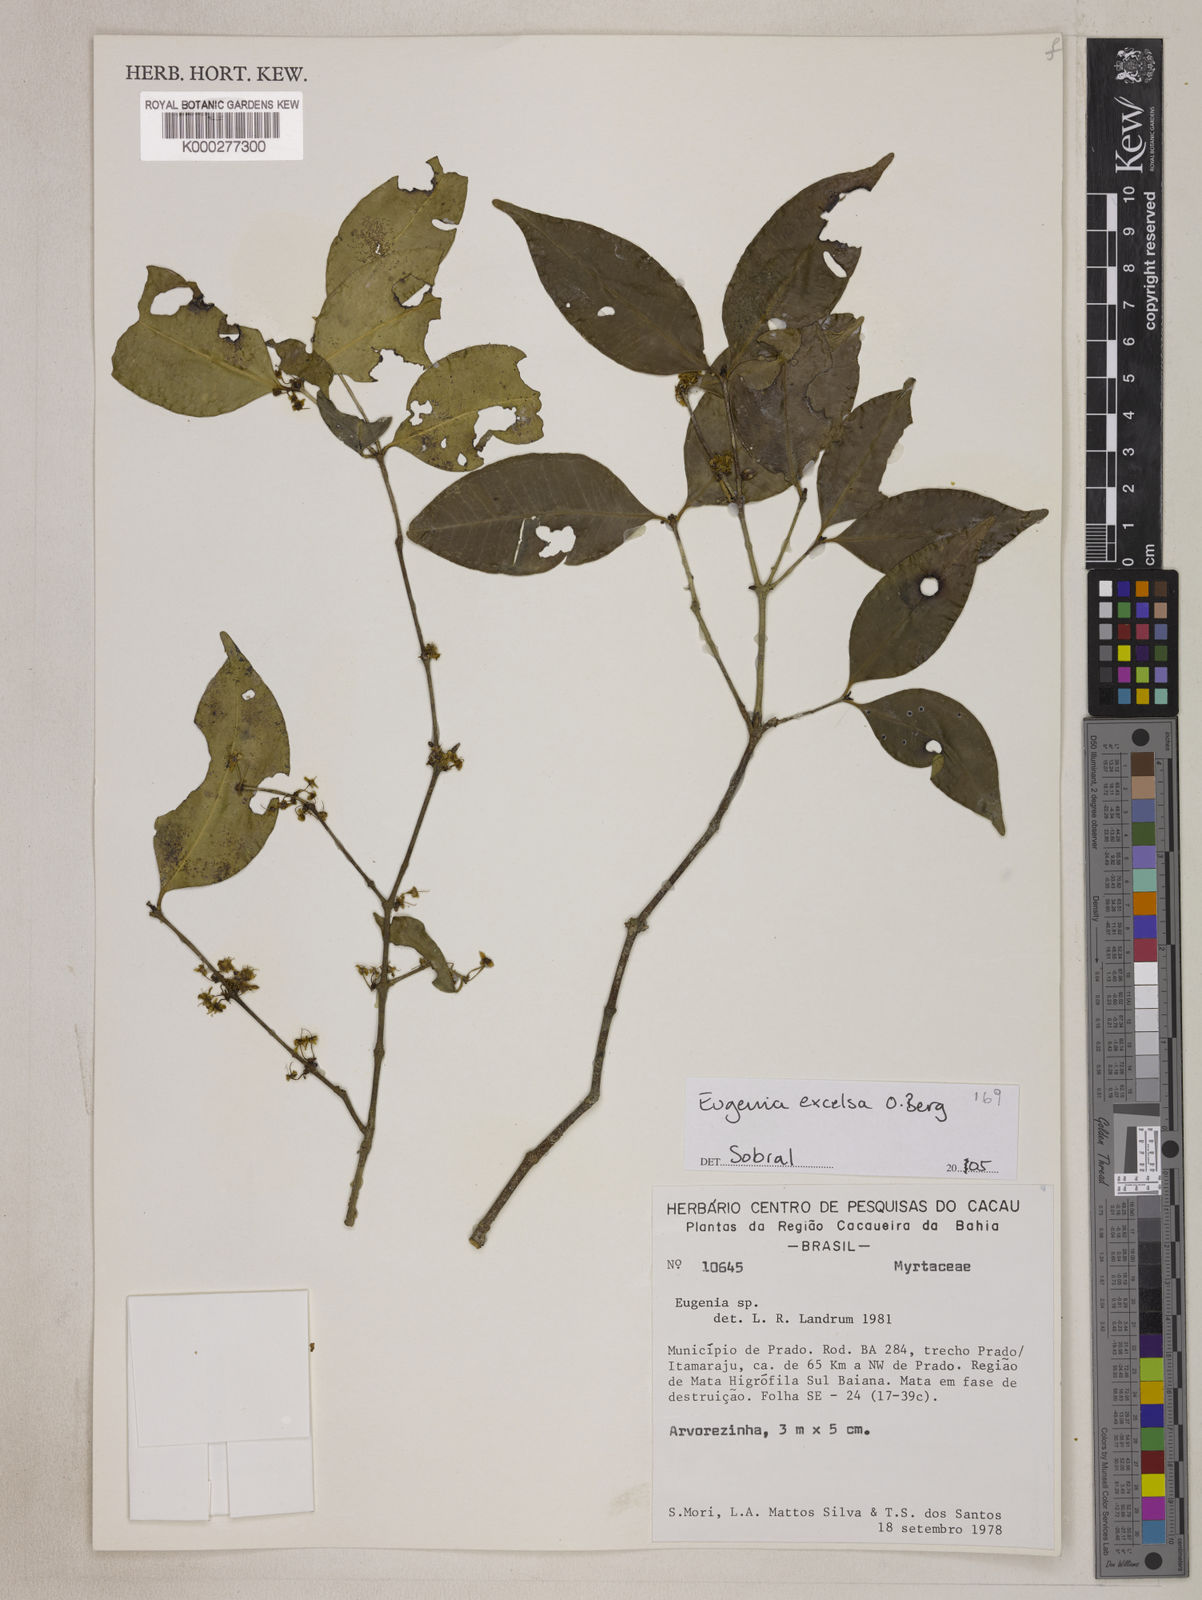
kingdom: Plantae
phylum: Tracheophyta
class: Magnoliopsida
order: Myrtales
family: Myrtaceae
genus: Eugenia
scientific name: Eugenia excelsa
